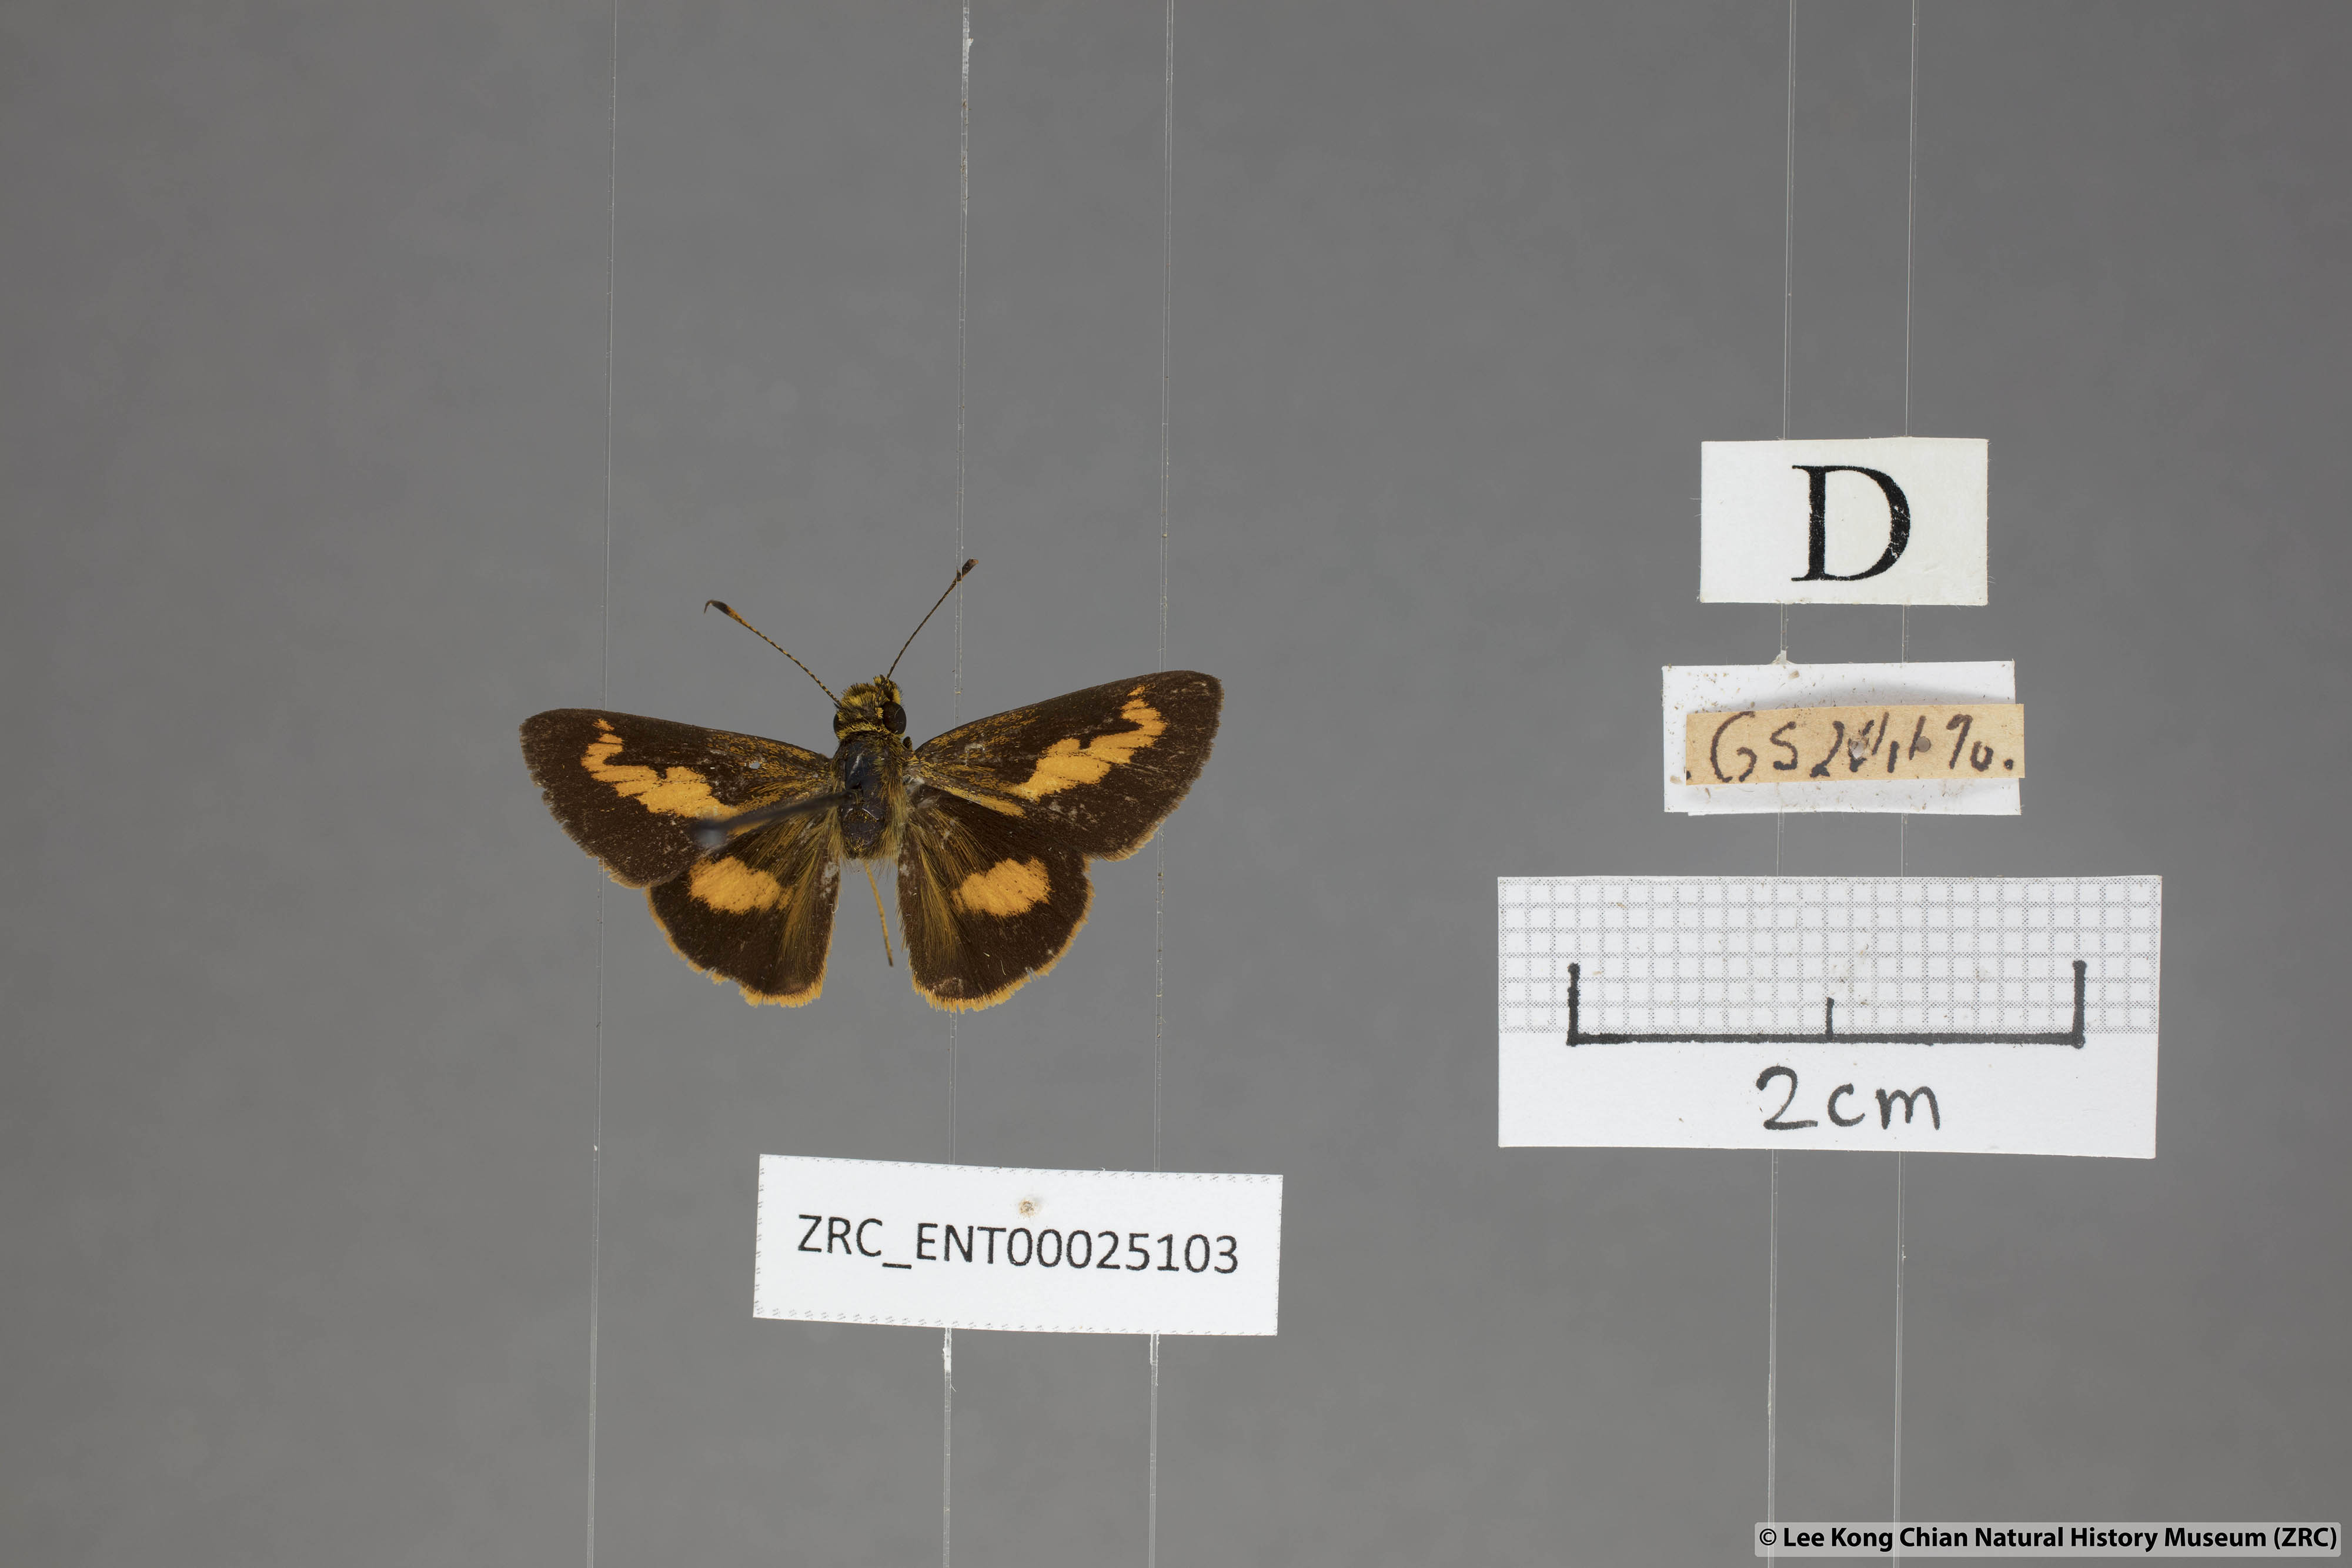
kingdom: Animalia
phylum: Arthropoda
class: Insecta
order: Lepidoptera
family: Hesperiidae
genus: Oriens
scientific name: Oriens paragola
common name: Malay dartlet
